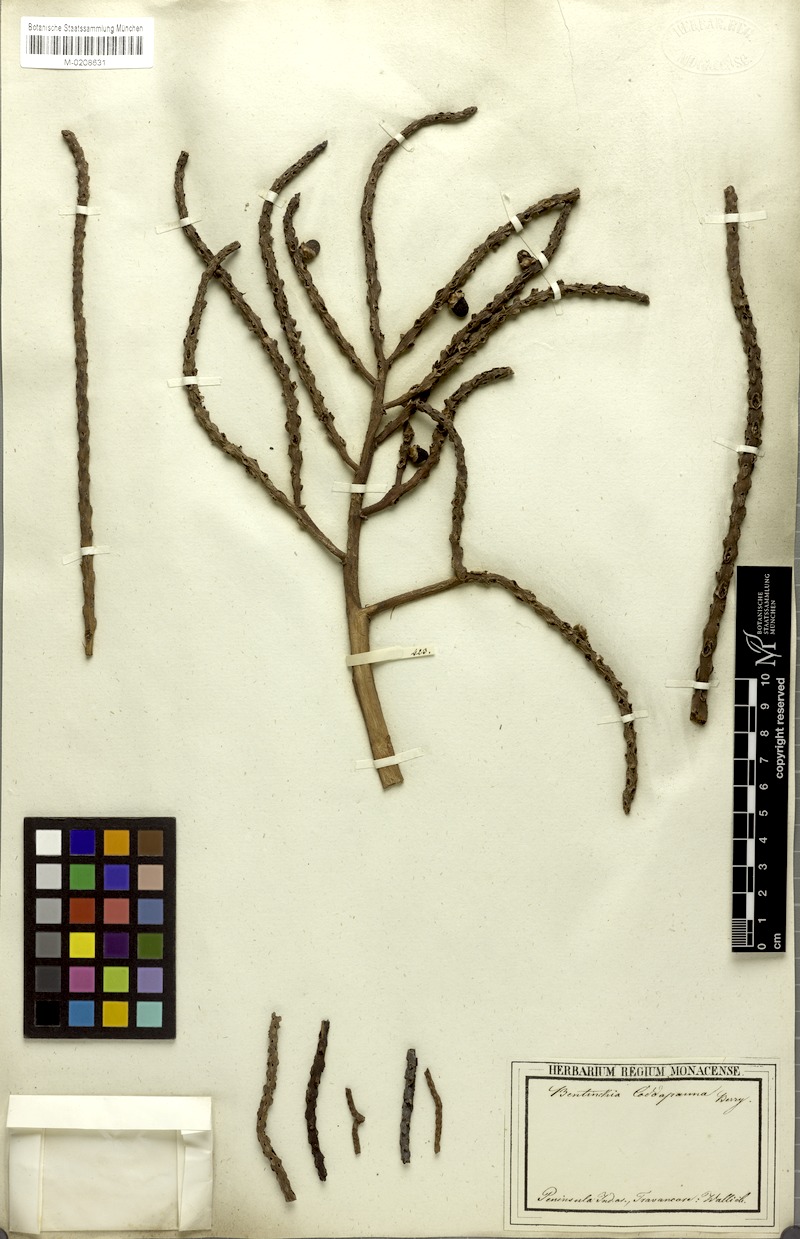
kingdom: Plantae
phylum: Tracheophyta
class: Liliopsida
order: Arecales
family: Arecaceae
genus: Bentinckia
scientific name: Bentinckia condapanna
